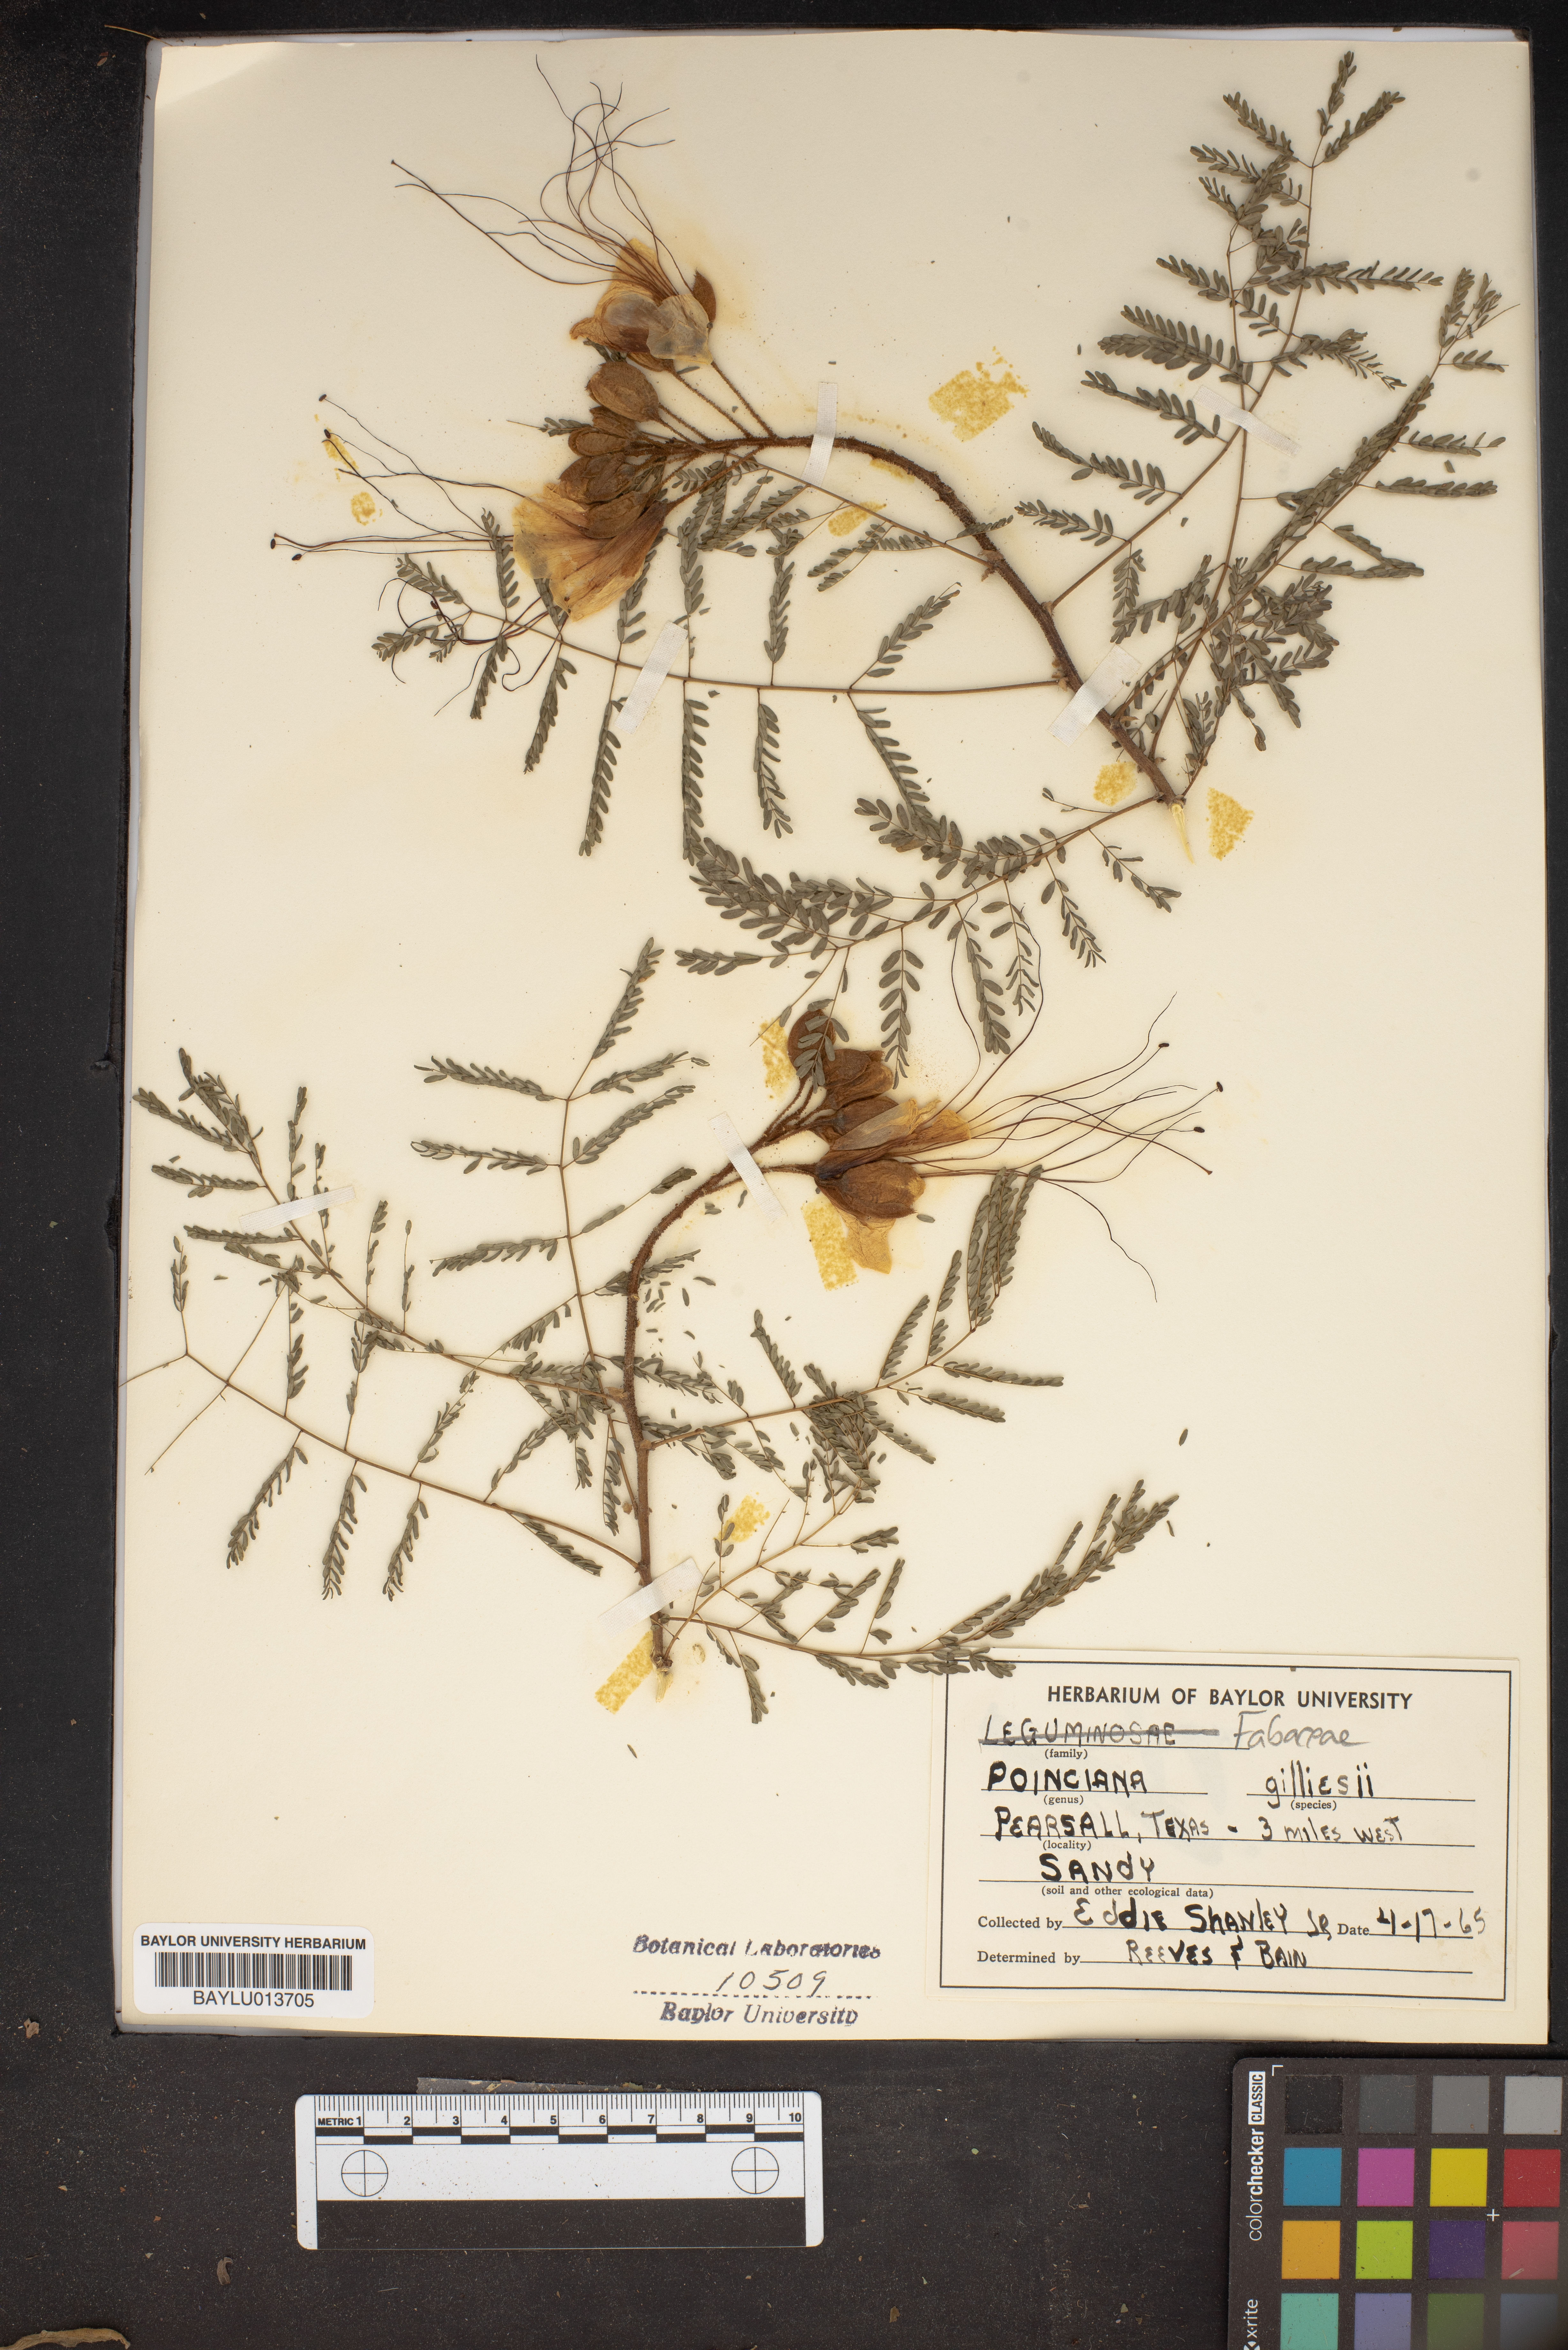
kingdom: Plantae
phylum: Tracheophyta
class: Magnoliopsida
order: Fabales
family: Fabaceae
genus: Erythrostemon
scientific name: Erythrostemon gilliesii
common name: Bird-of-paradise shrub
